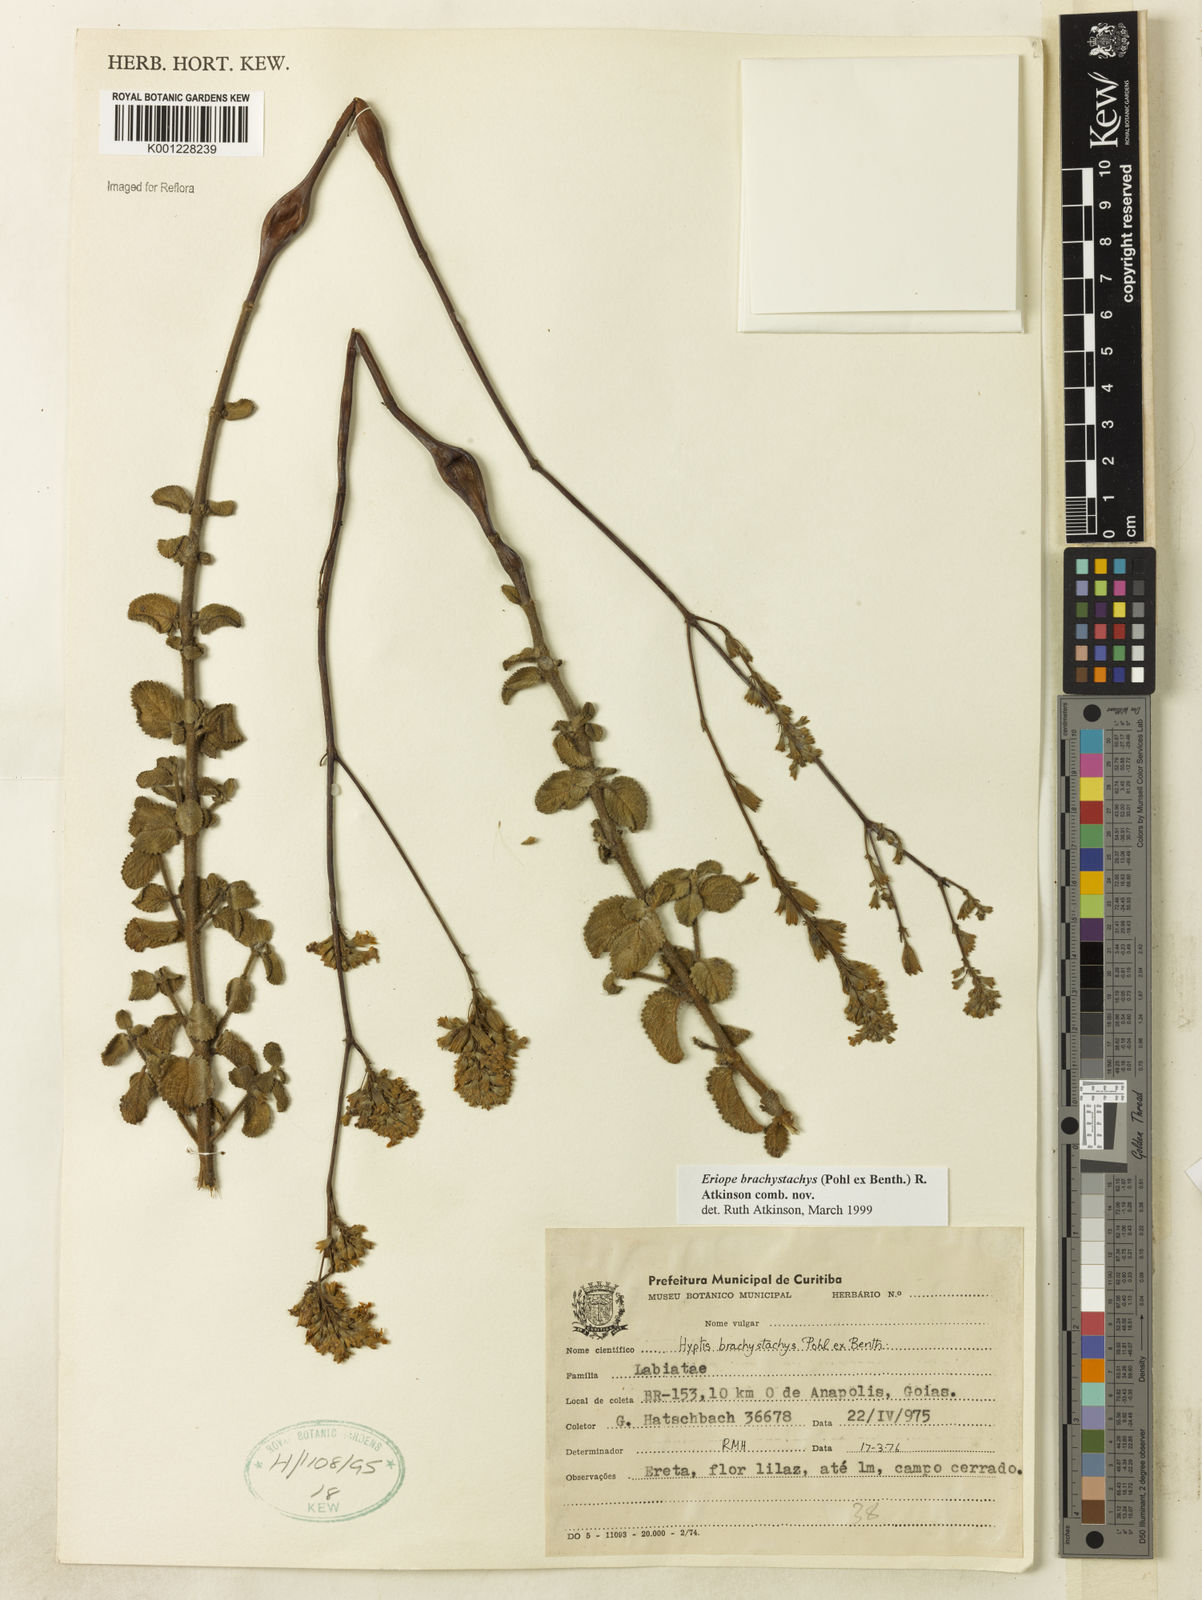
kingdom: Plantae
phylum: Tracheophyta
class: Magnoliopsida
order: Lamiales
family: Lamiaceae
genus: Hypenia
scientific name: Hypenia brachystachys
